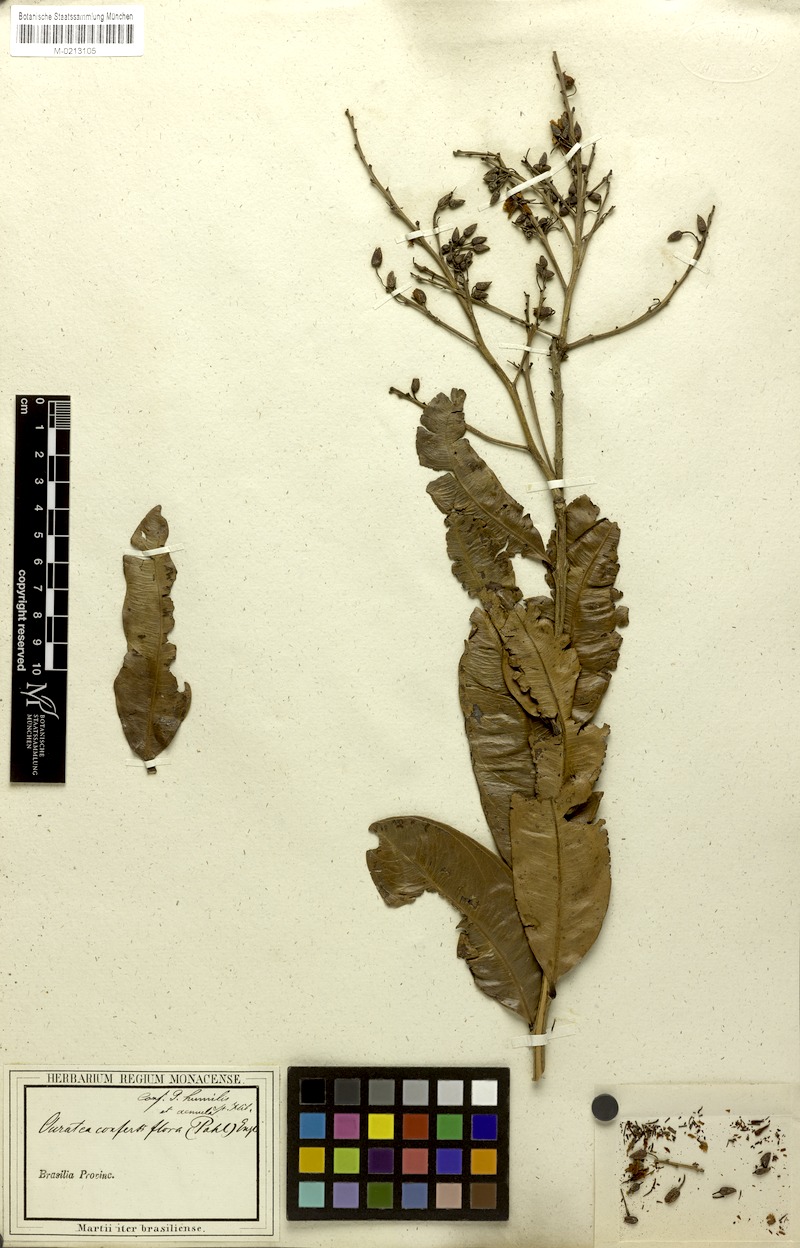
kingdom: Plantae
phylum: Tracheophyta
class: Magnoliopsida
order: Malpighiales
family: Ochnaceae
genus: Ouratea
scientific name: Ouratea confertiflora
